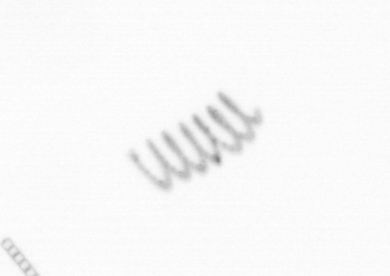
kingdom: Chromista
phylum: Ochrophyta
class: Bacillariophyceae
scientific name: Bacillariophyceae
